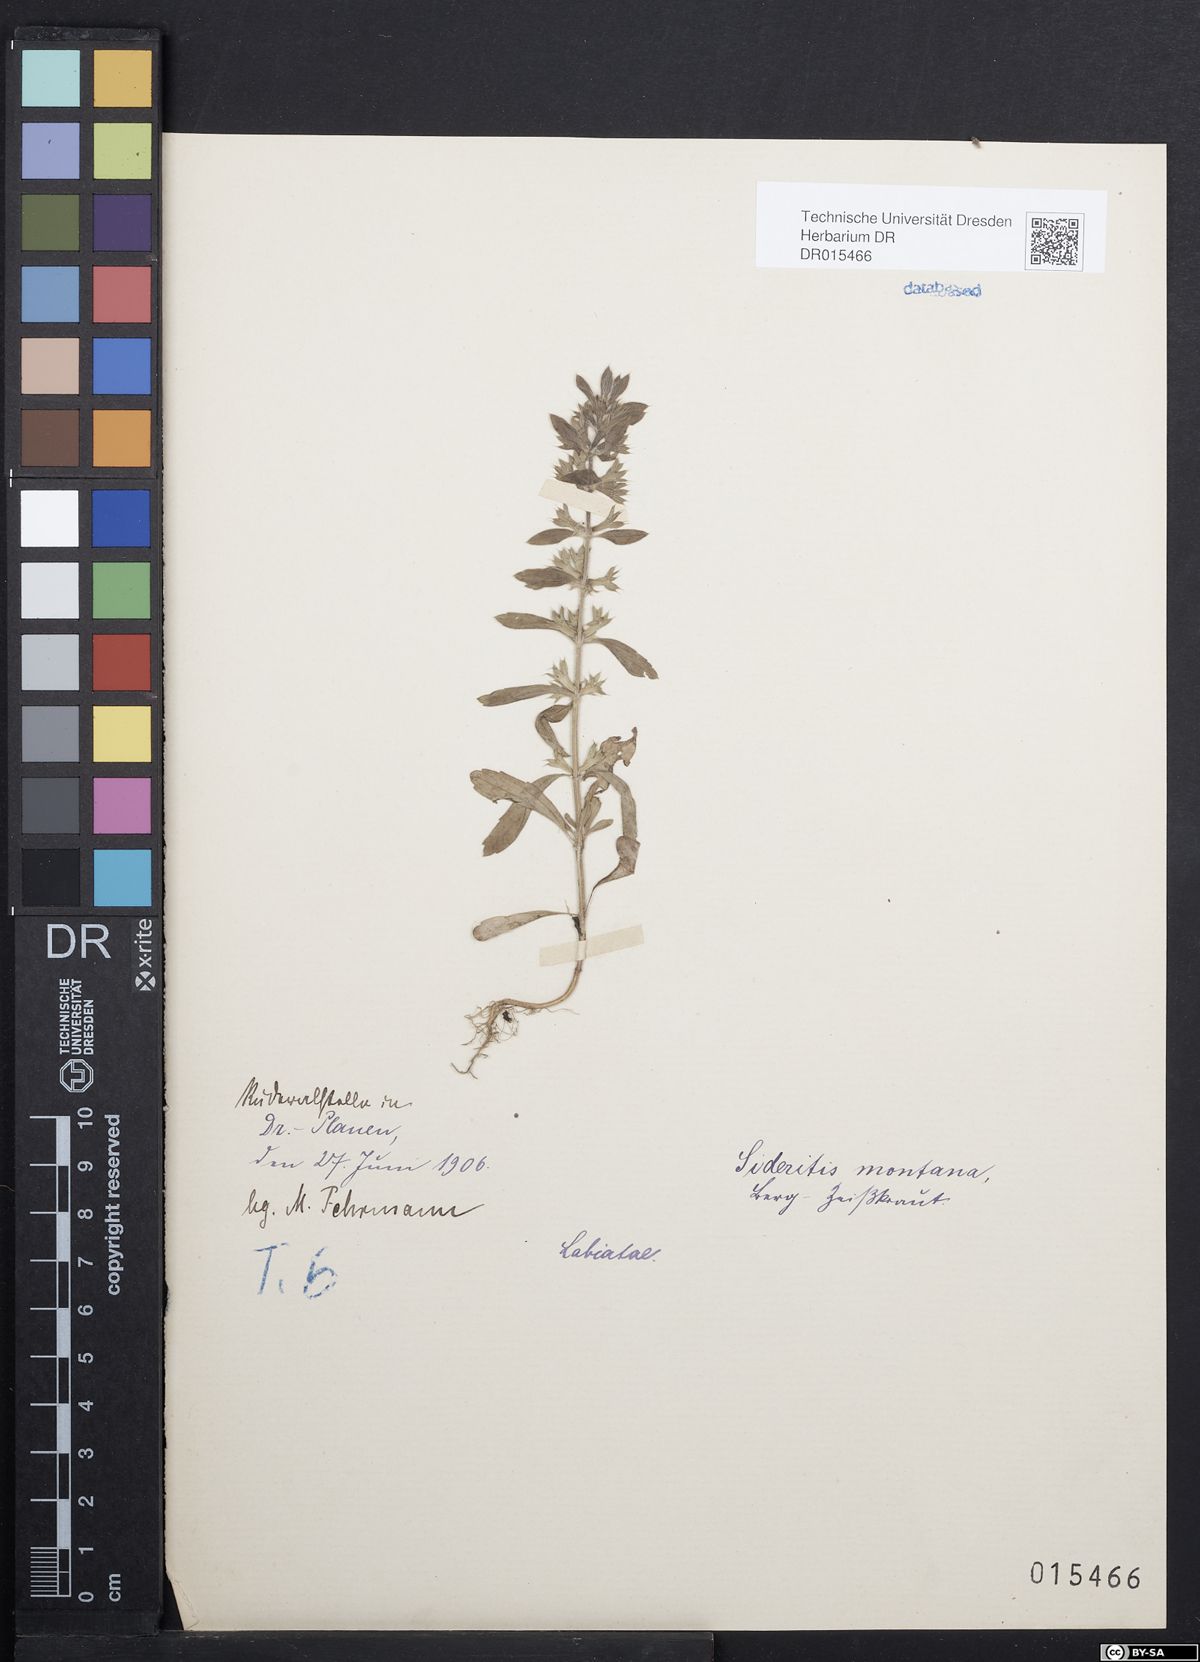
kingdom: Plantae
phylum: Tracheophyta
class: Magnoliopsida
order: Lamiales
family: Lamiaceae
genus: Sideritis
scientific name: Sideritis montana
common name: Mountain ironwort
